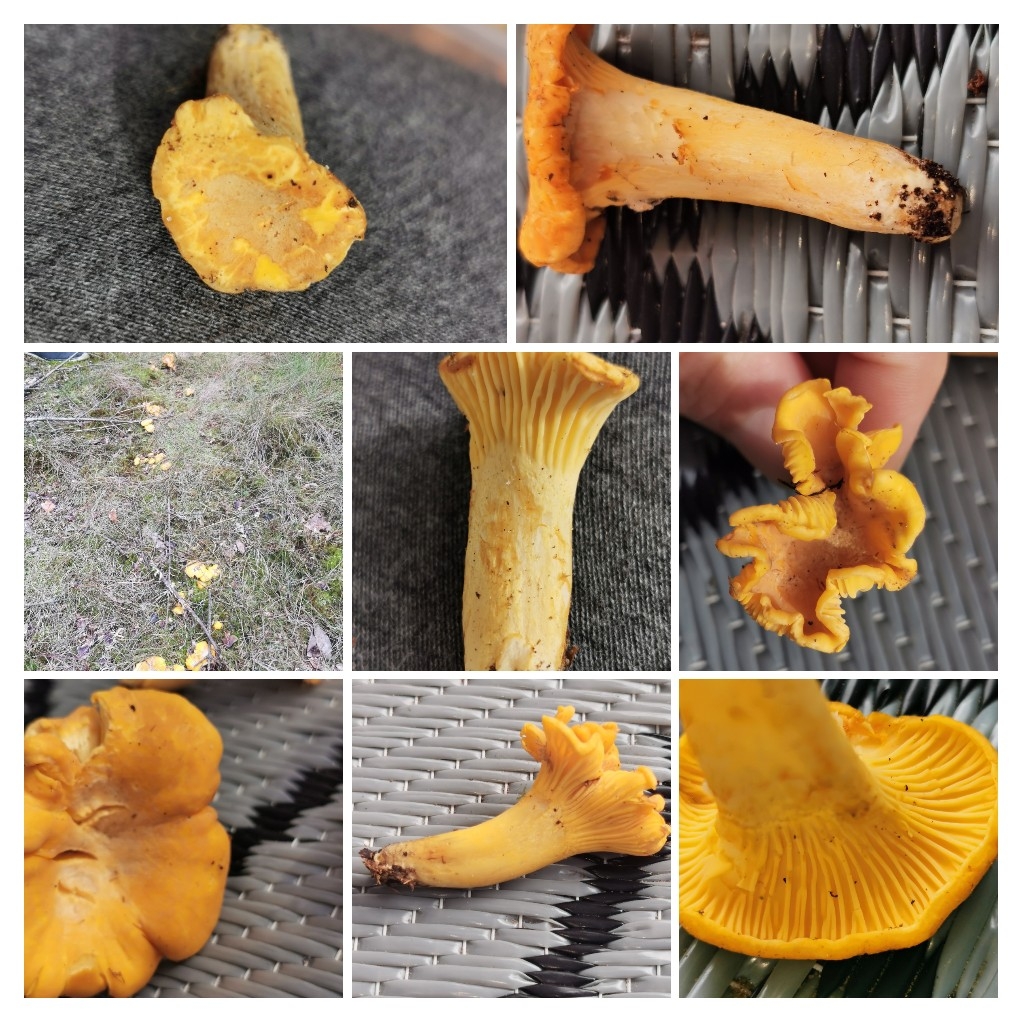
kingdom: Fungi
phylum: Basidiomycota
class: Agaricomycetes
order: Cantharellales
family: Hydnaceae
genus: Cantharellus
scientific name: Cantharellus amethysteus
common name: ametyst-kantarel
